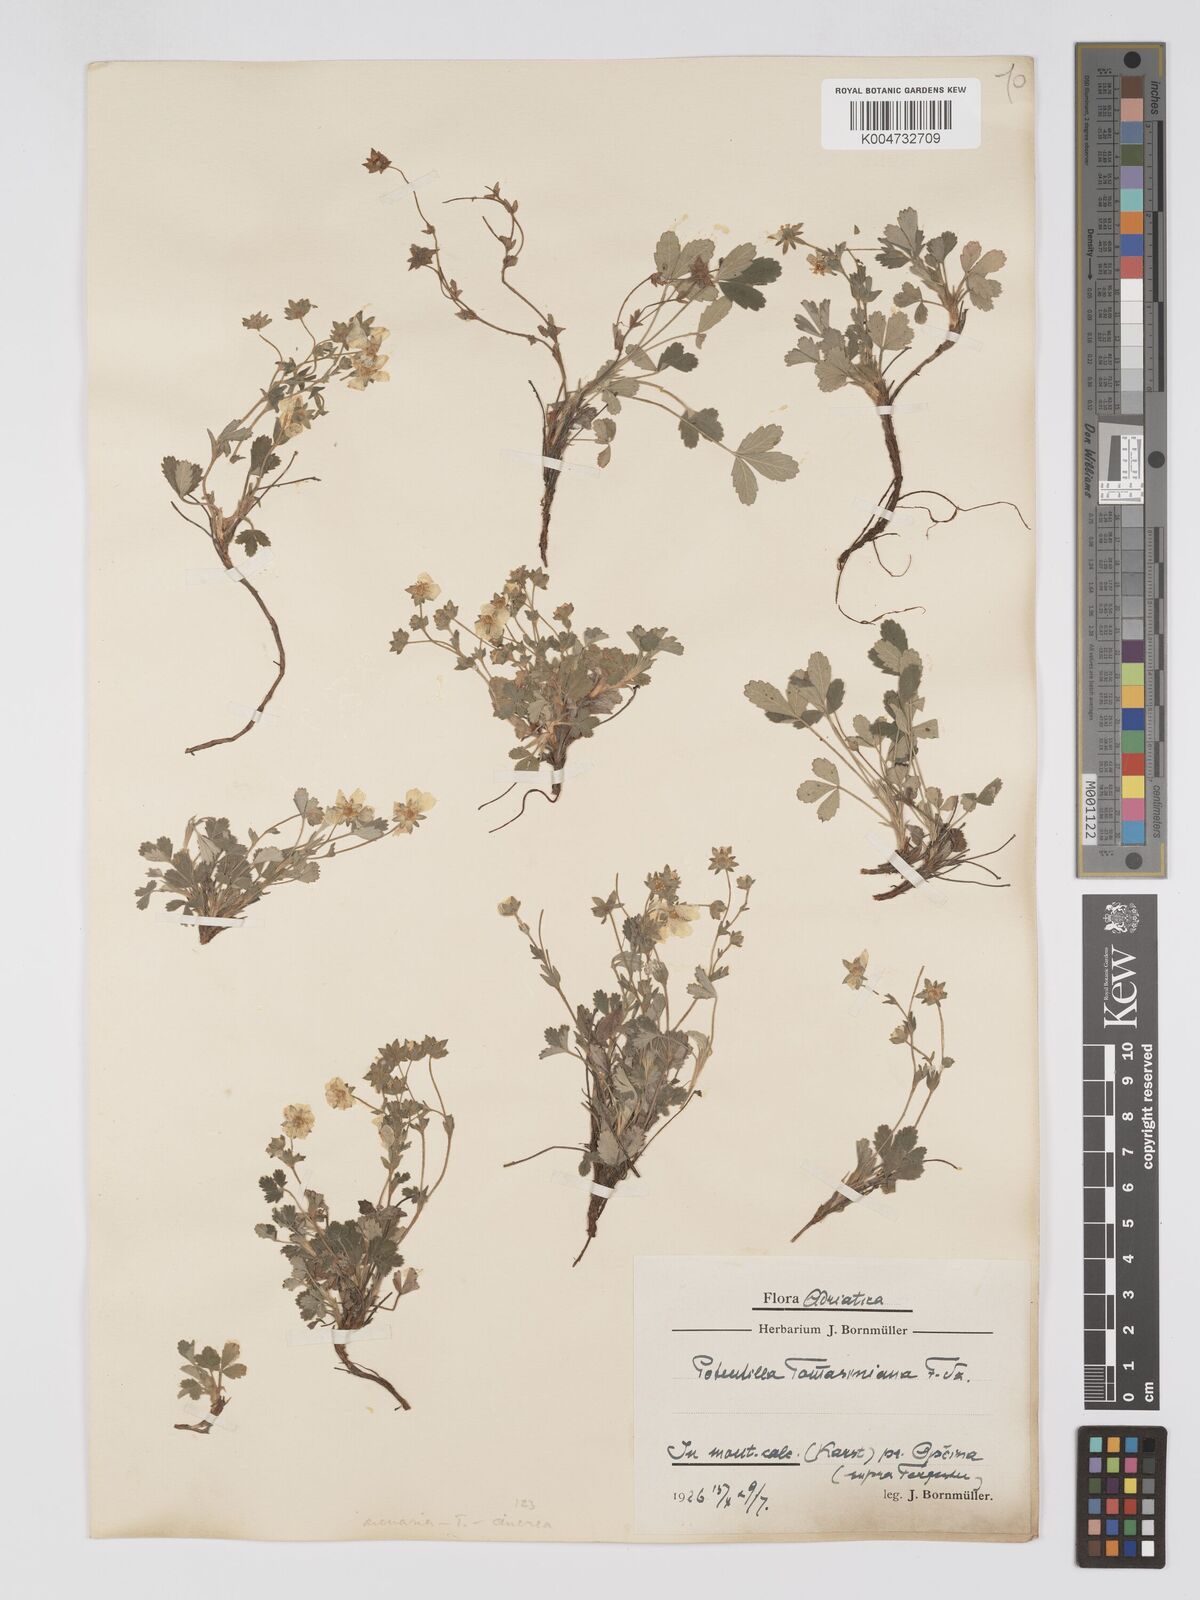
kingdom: Plantae
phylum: Tracheophyta
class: Magnoliopsida
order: Rosales
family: Rosaceae
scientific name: Rosaceae
